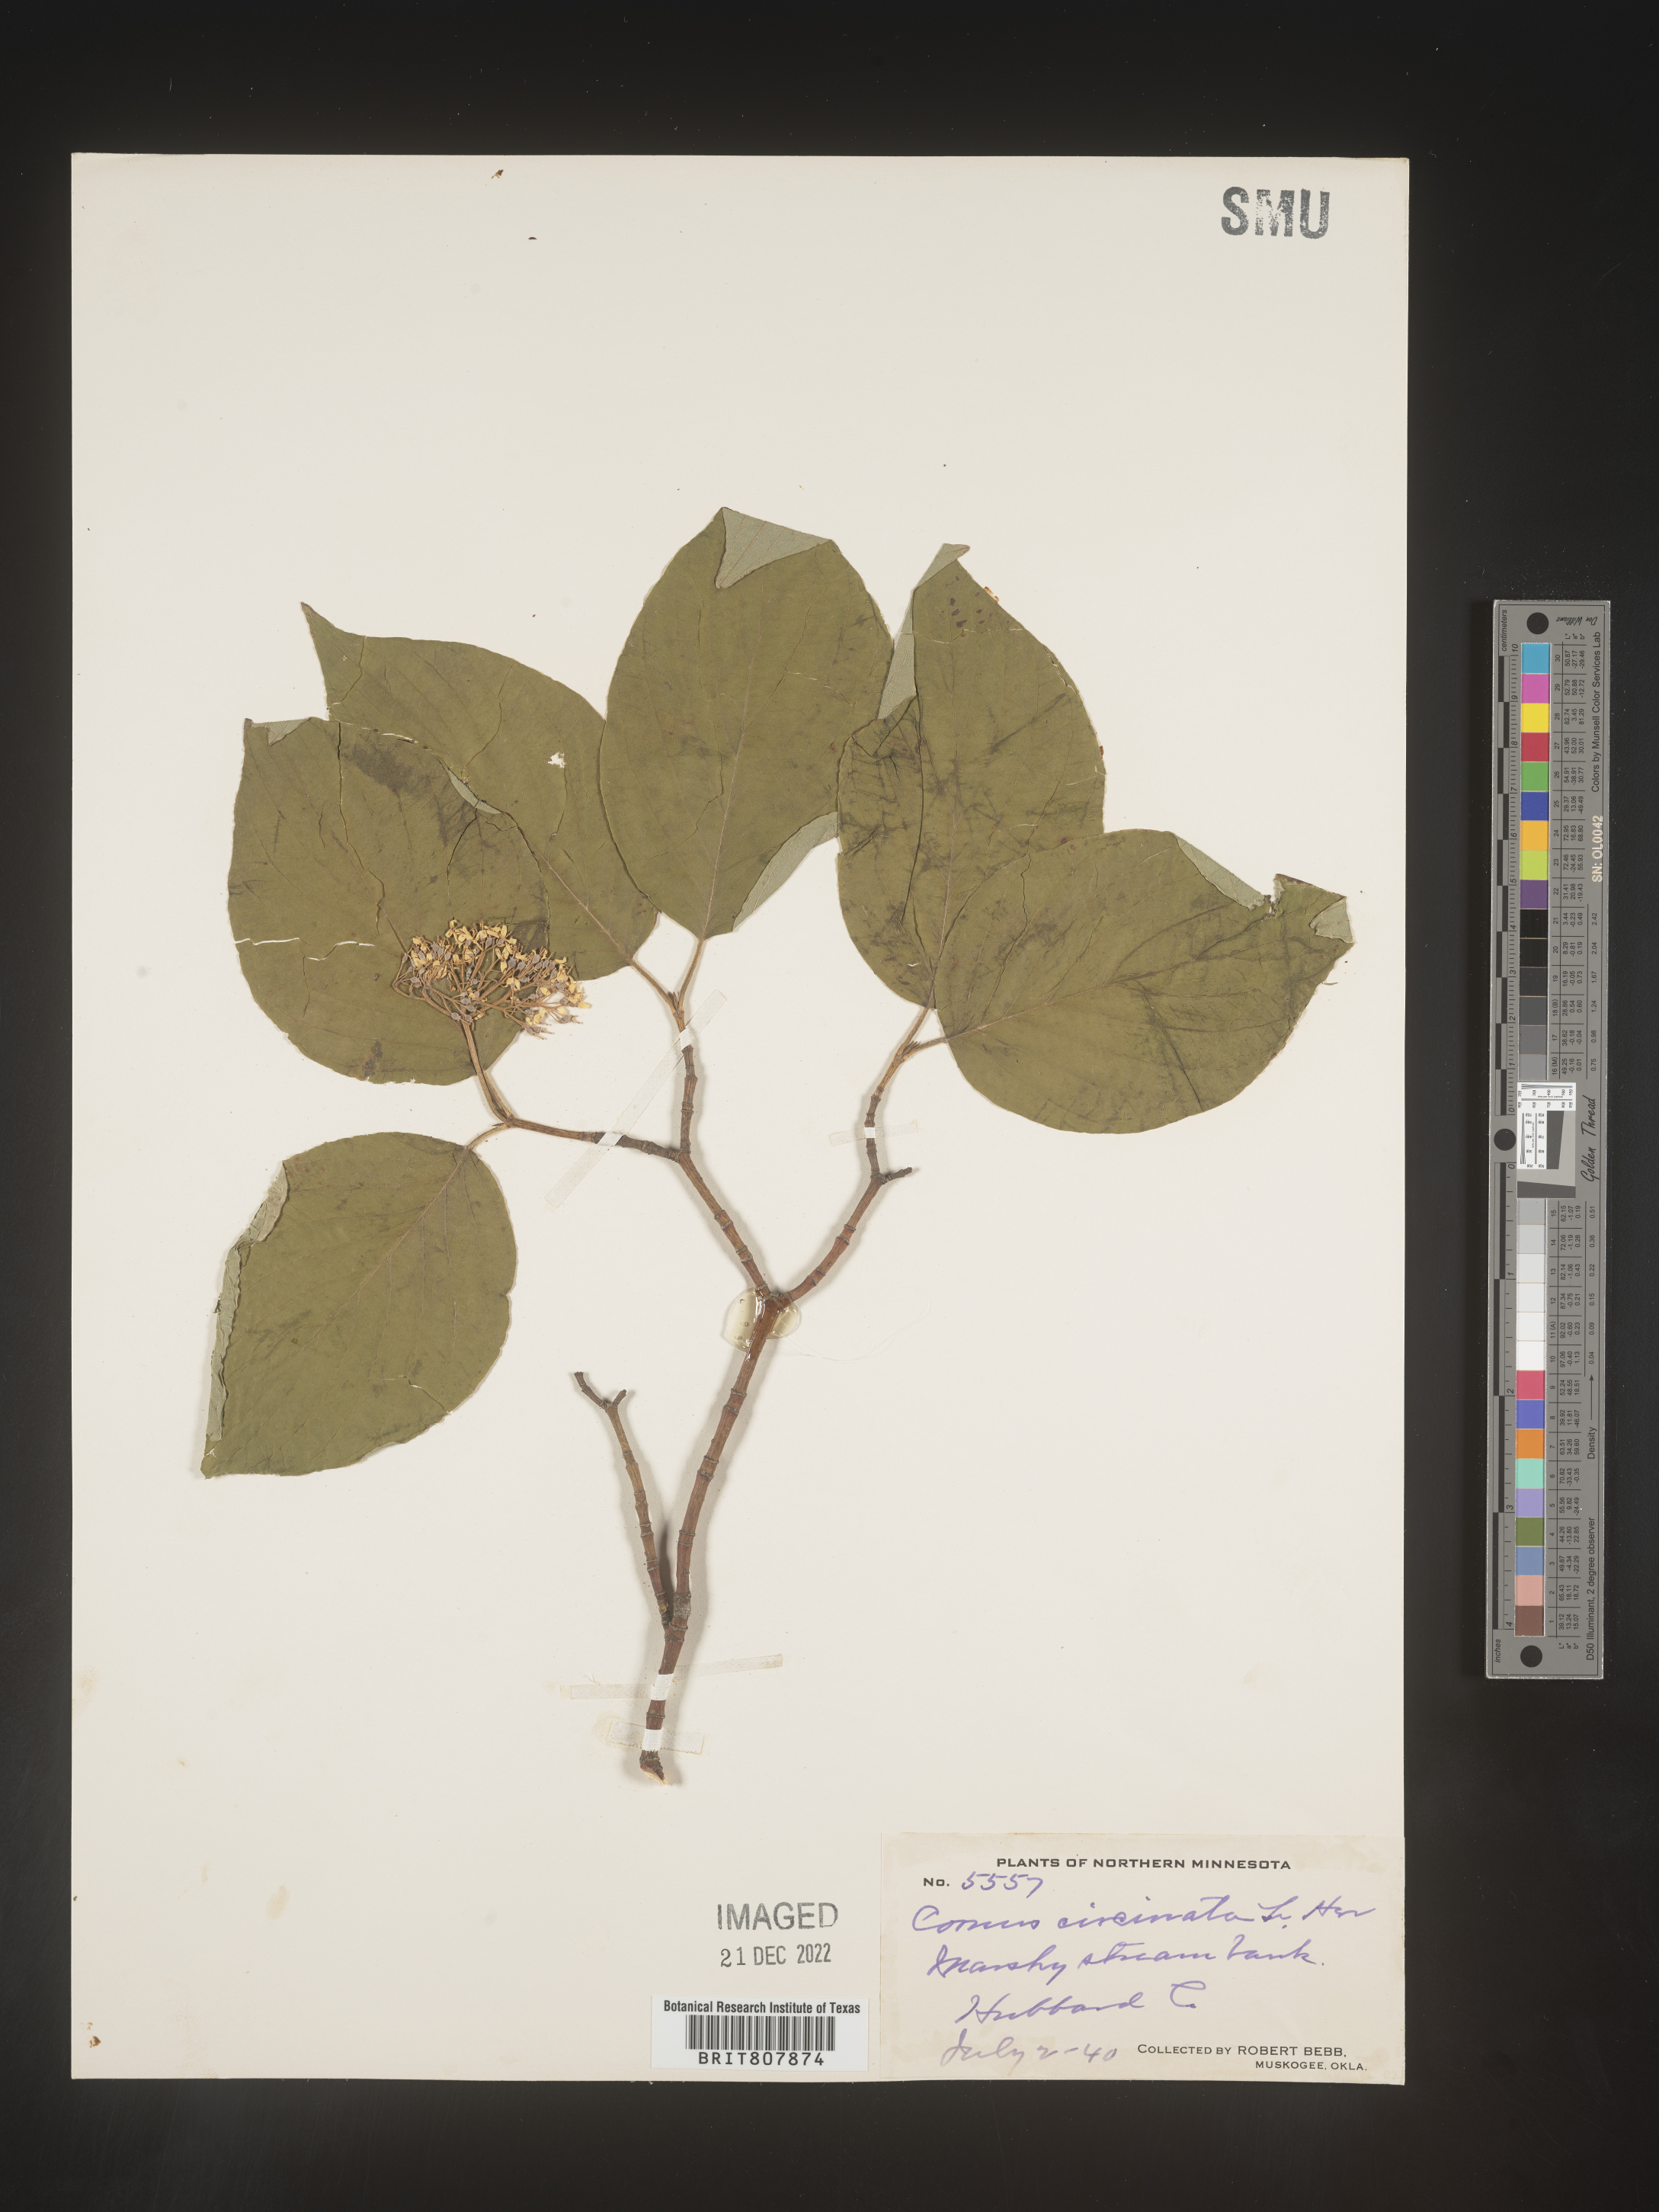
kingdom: Plantae
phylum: Tracheophyta
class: Magnoliopsida
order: Cornales
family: Cornaceae
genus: Cornus
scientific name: Cornus rugosa
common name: Round-leaf dogwood
